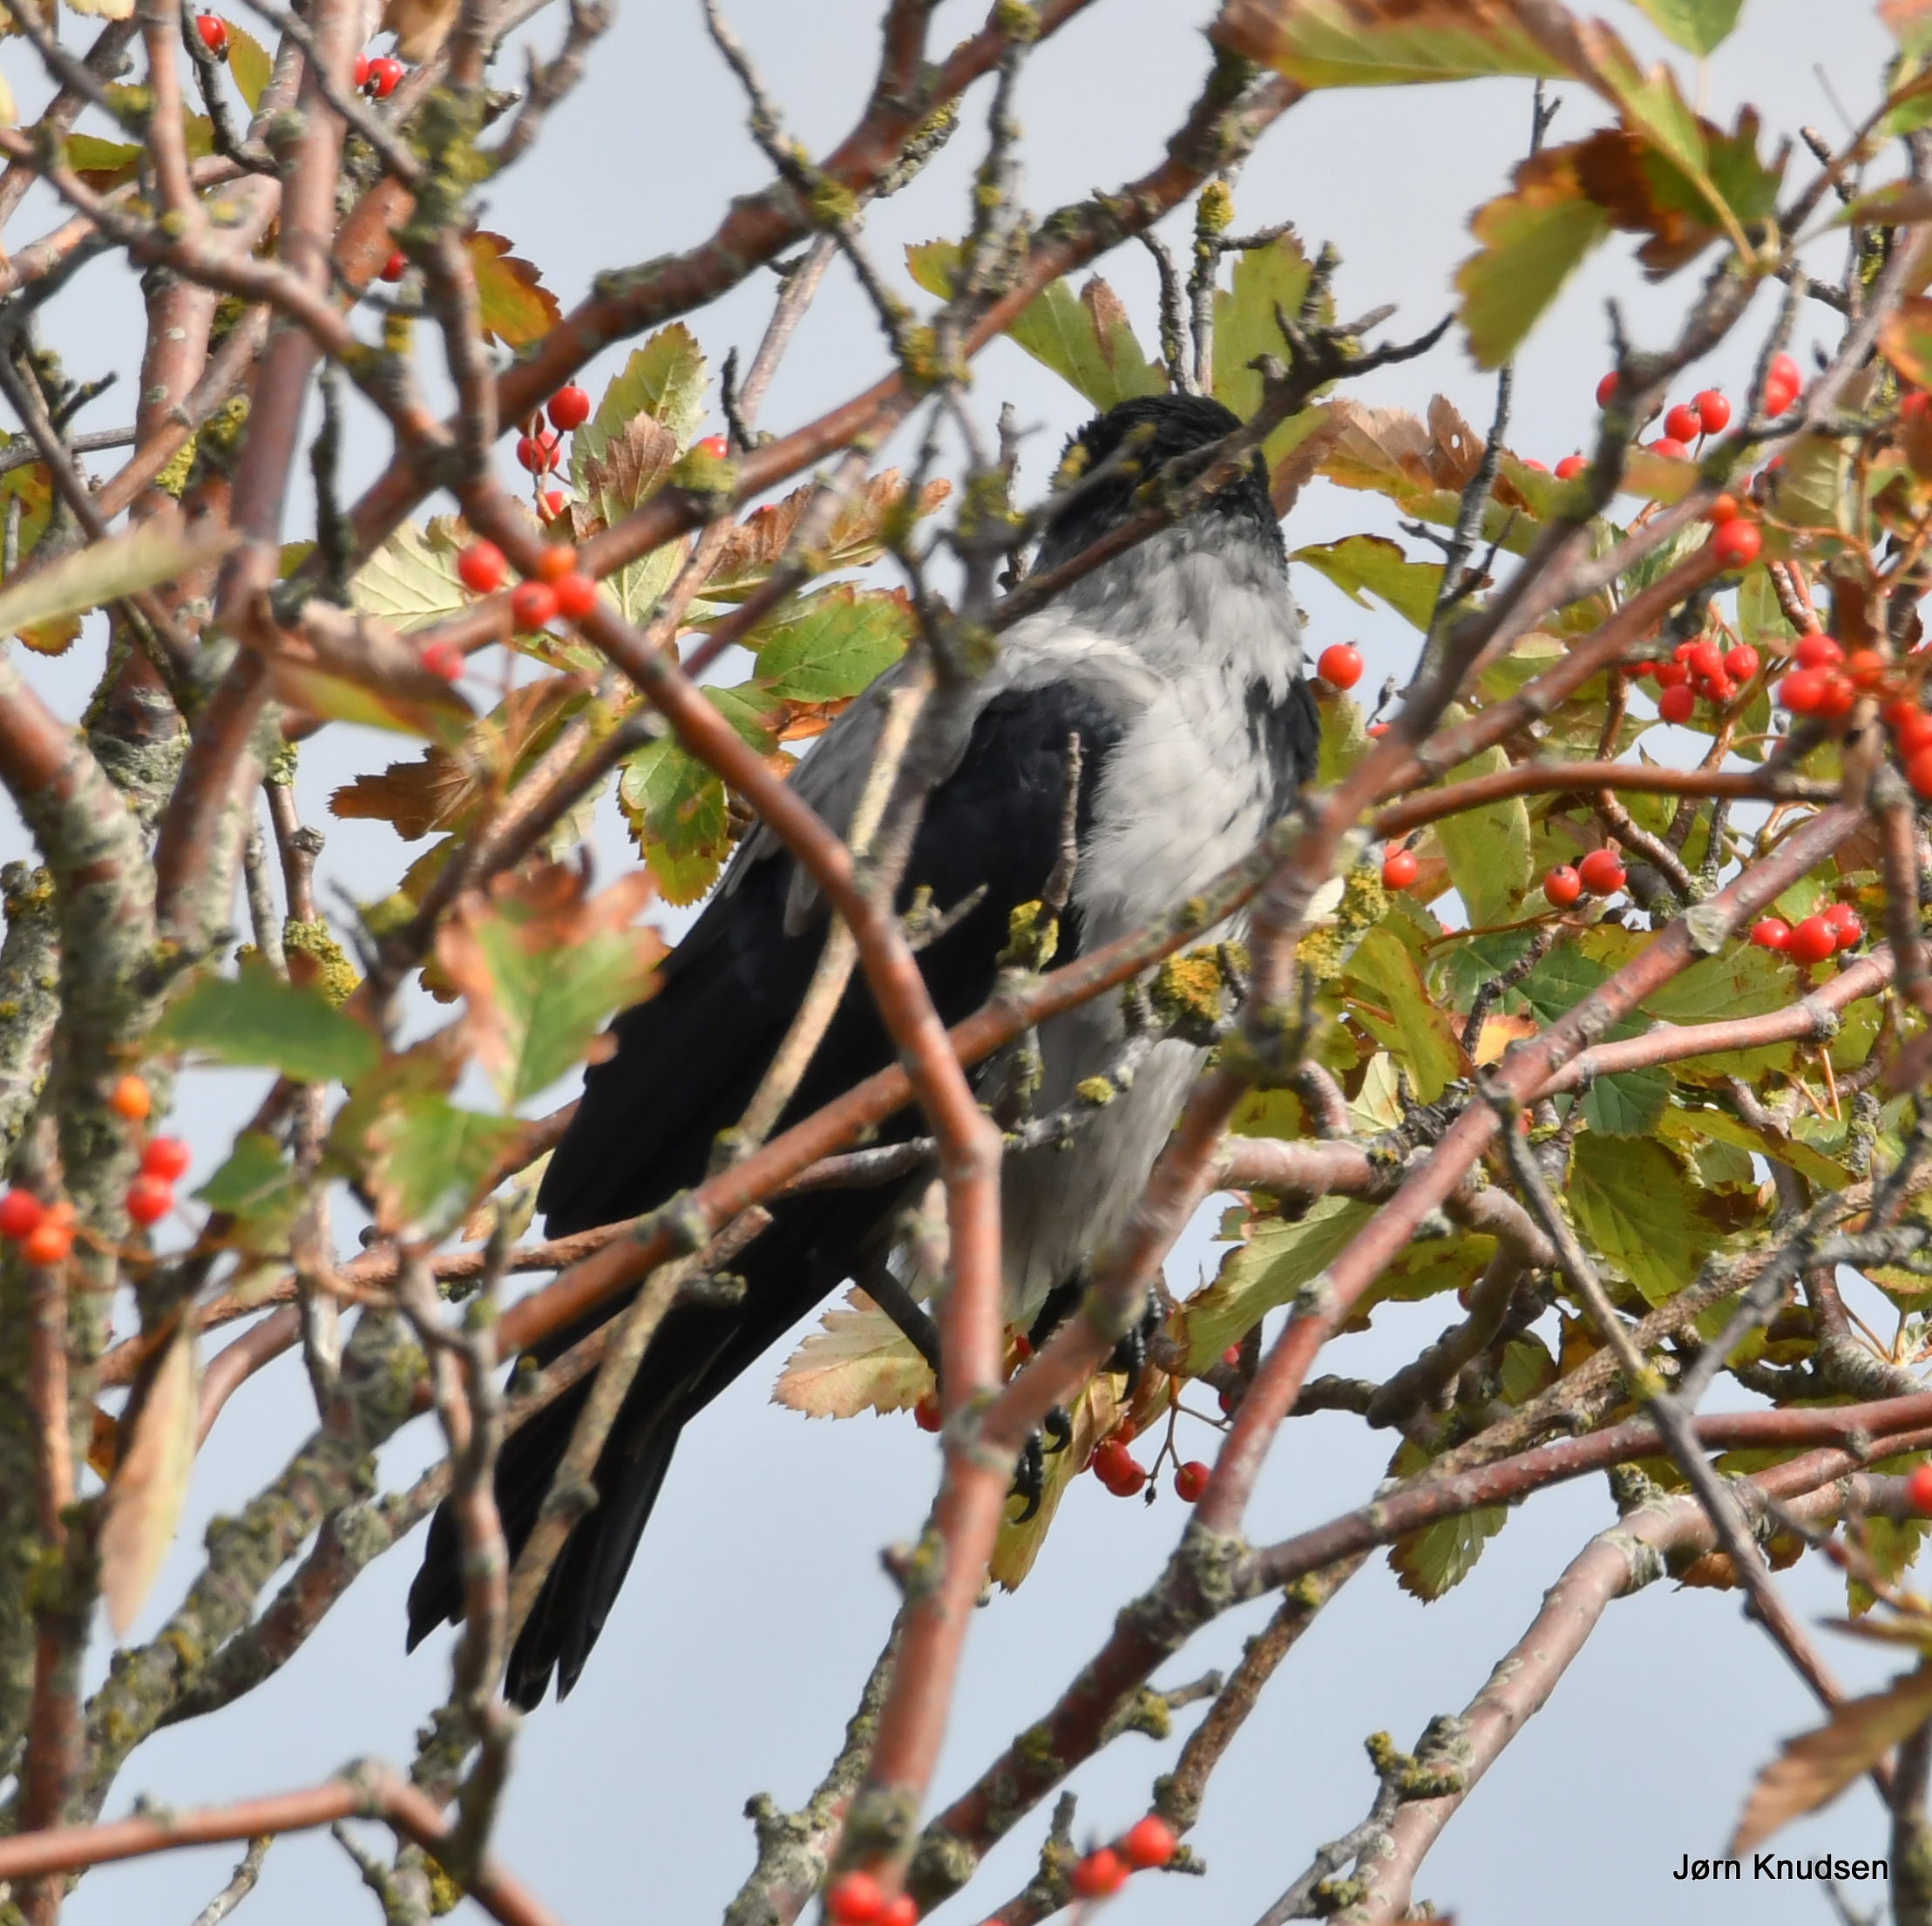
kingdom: Animalia
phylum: Chordata
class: Aves
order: Passeriformes
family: Corvidae
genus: Corvus
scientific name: Corvus cornix
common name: Gråkrage
